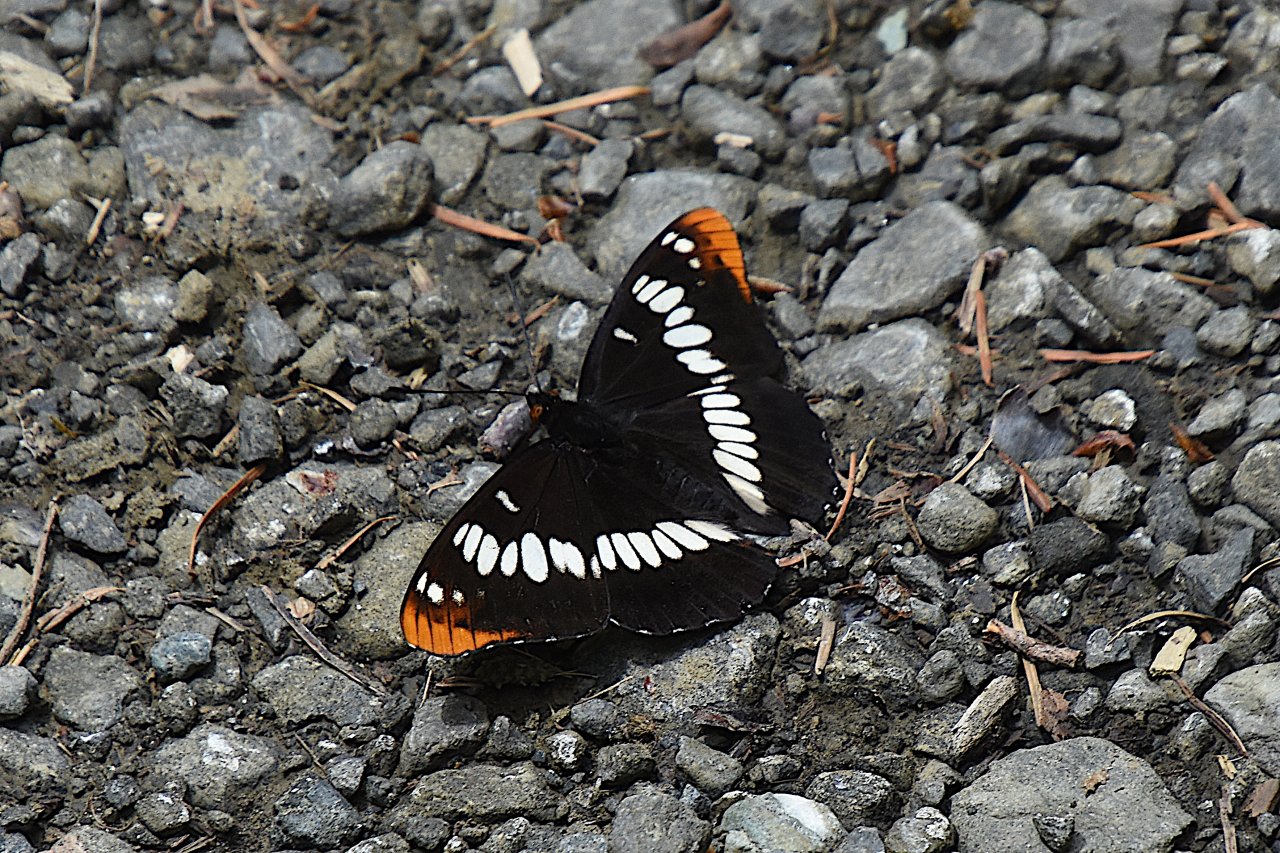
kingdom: Animalia
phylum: Arthropoda
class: Insecta
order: Lepidoptera
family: Nymphalidae
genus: Limenitis
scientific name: Limenitis lorquini
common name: Lorquin's Admiral
